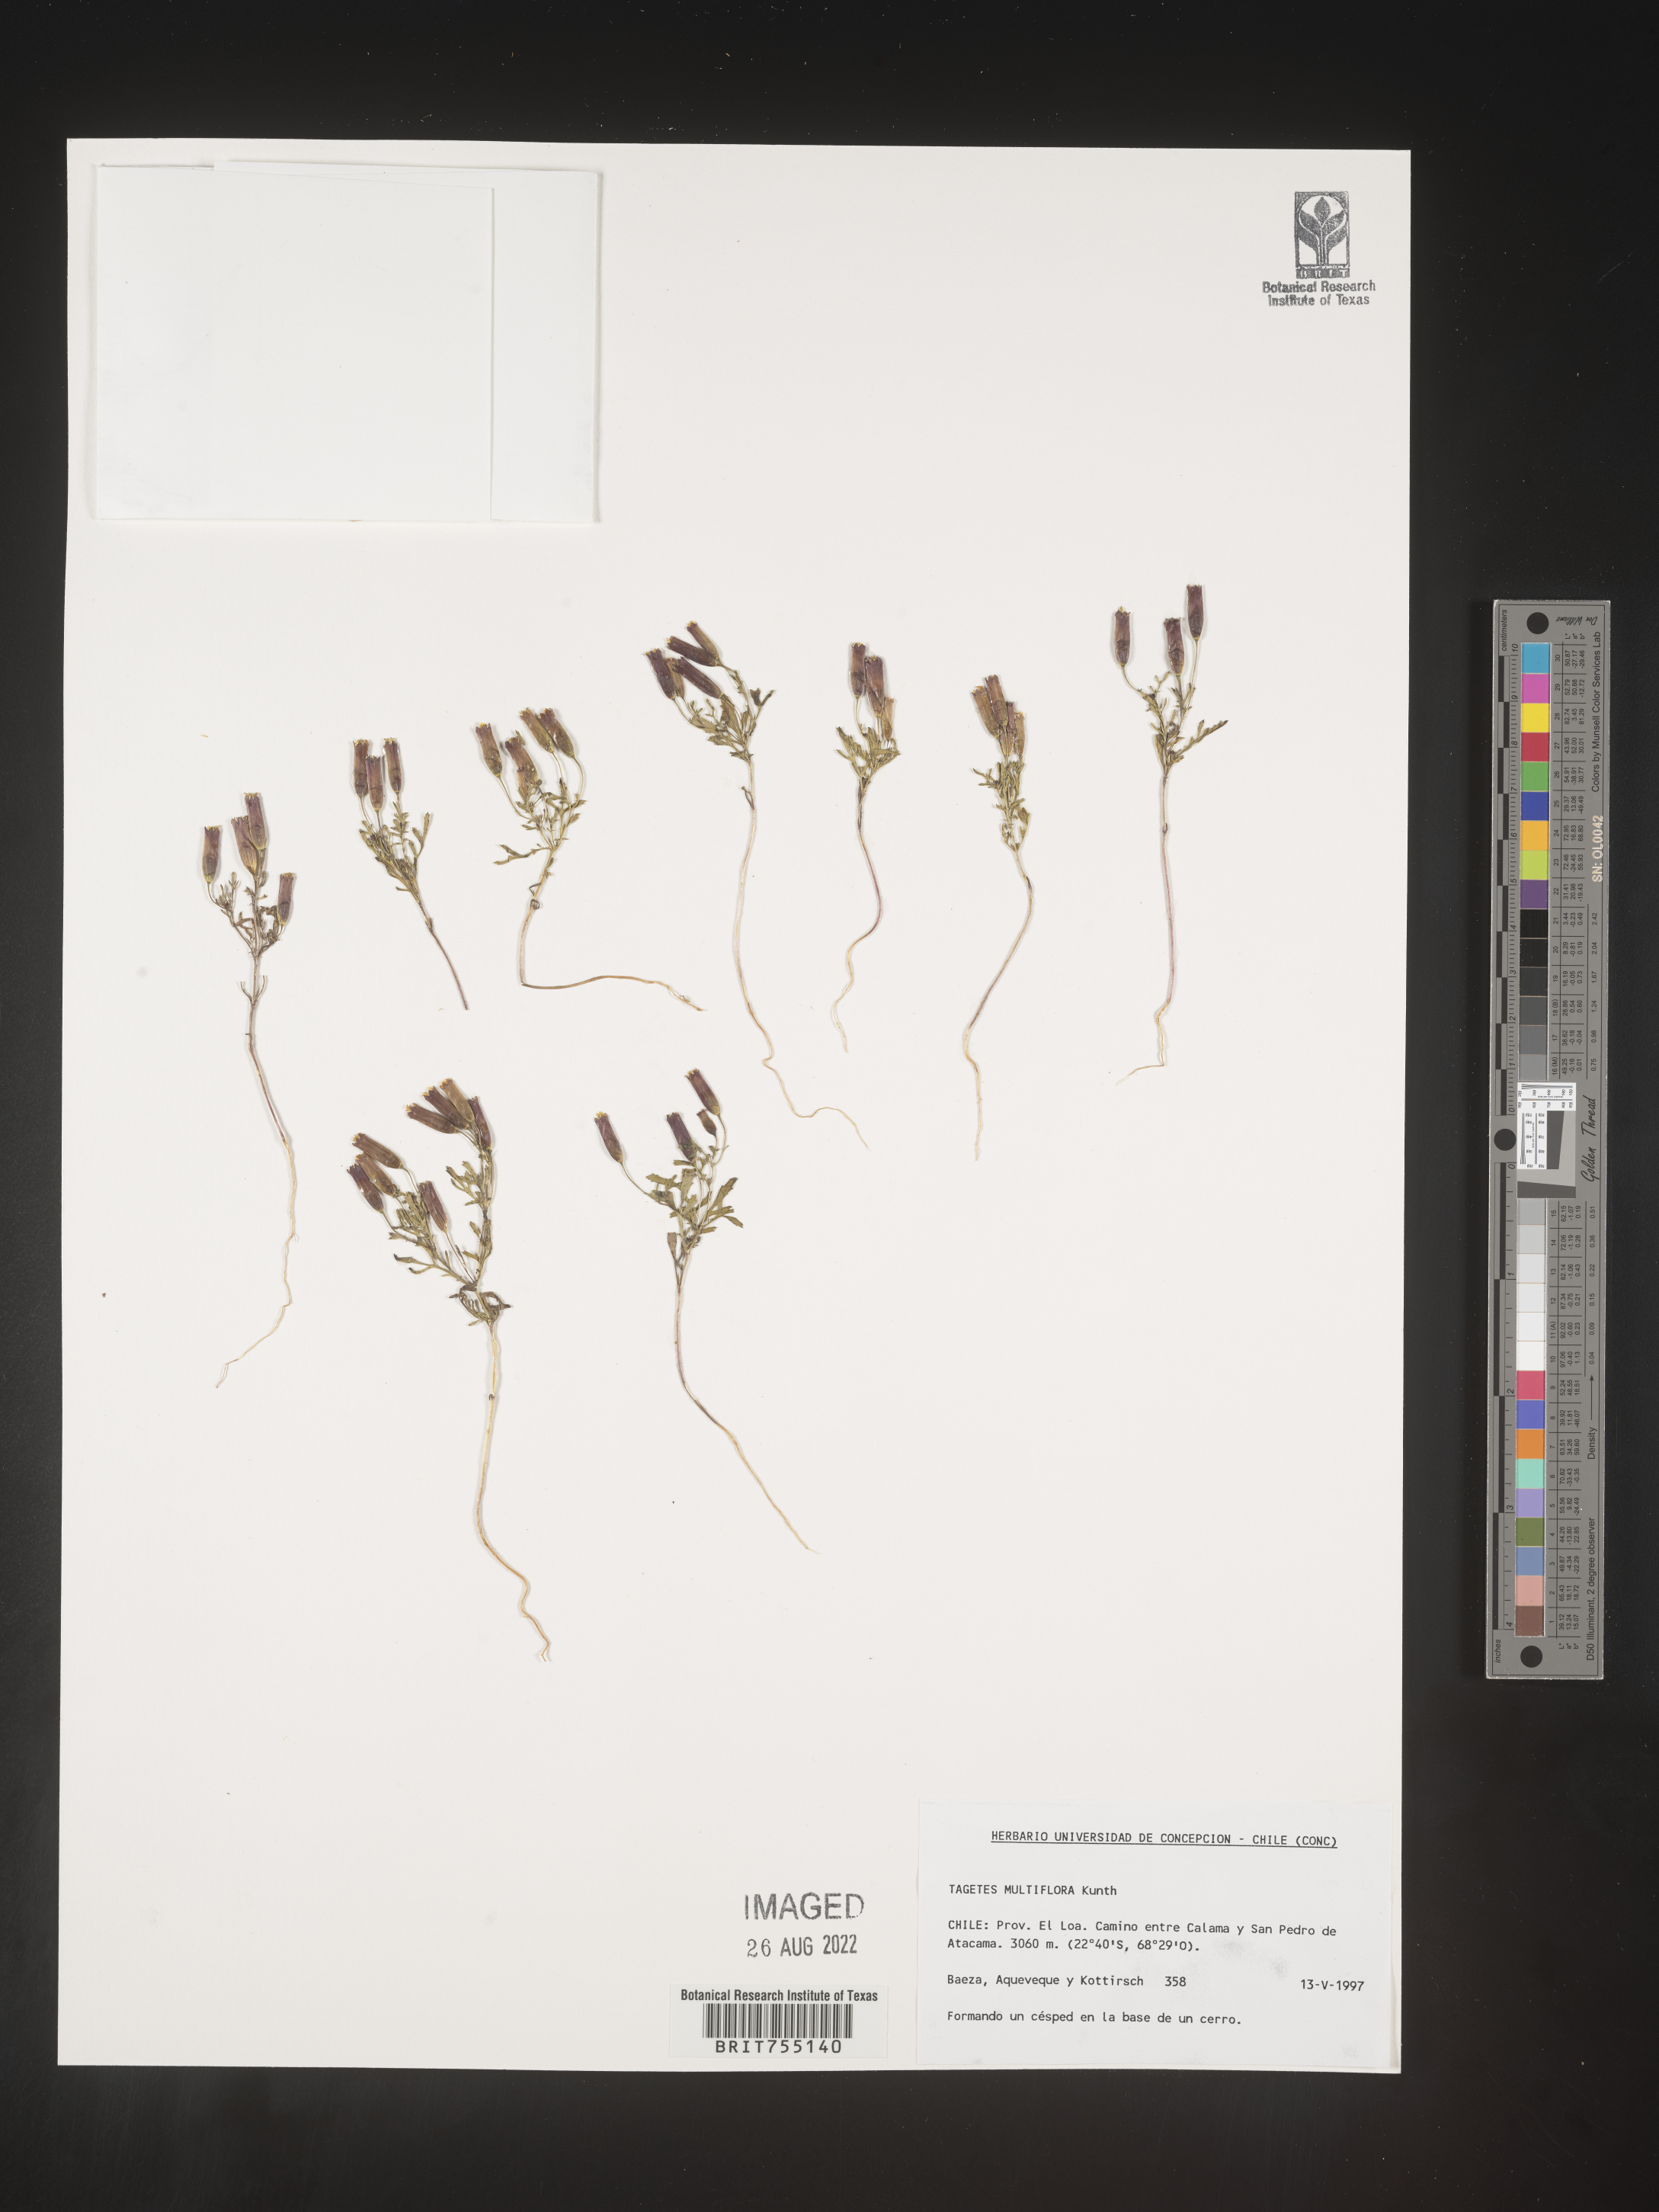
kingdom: Plantae
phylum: Tracheophyta
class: Magnoliopsida
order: Asterales
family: Asteraceae
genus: Tagetes
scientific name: Tagetes
